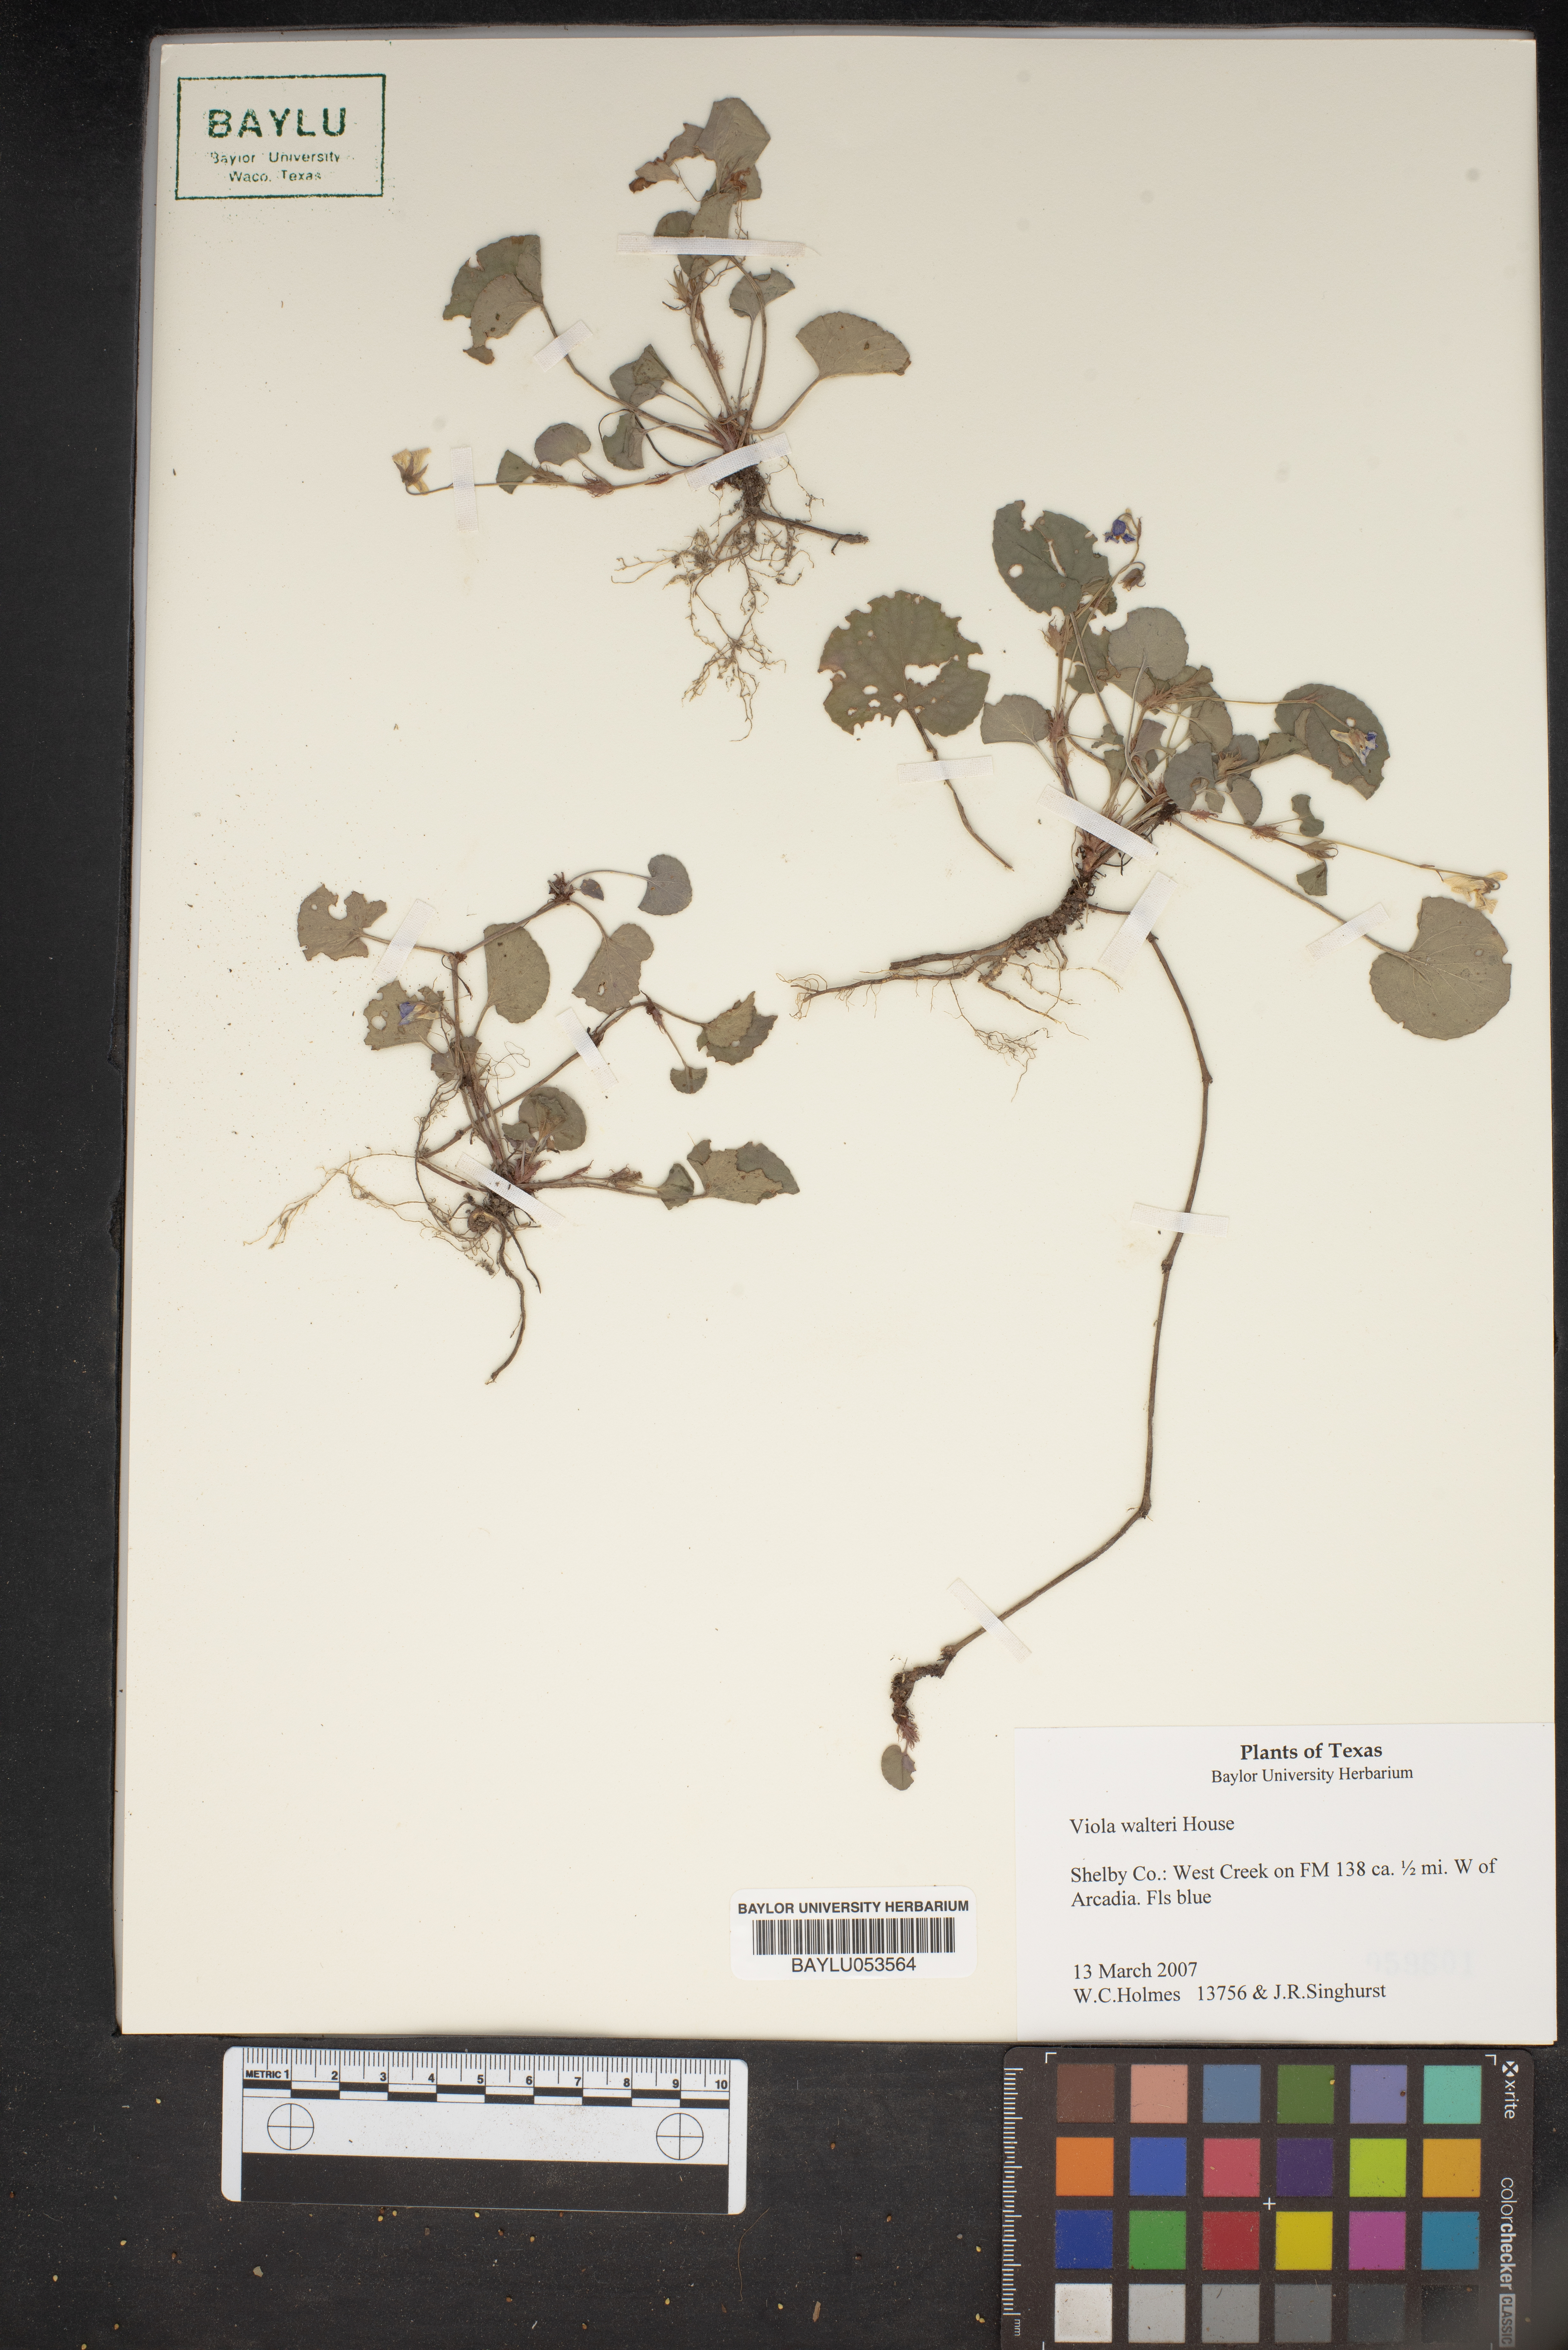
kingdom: Plantae
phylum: Tracheophyta
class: Magnoliopsida
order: Malpighiales
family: Violaceae
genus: Viola
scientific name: Viola walteri
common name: Prostrate southern violet
